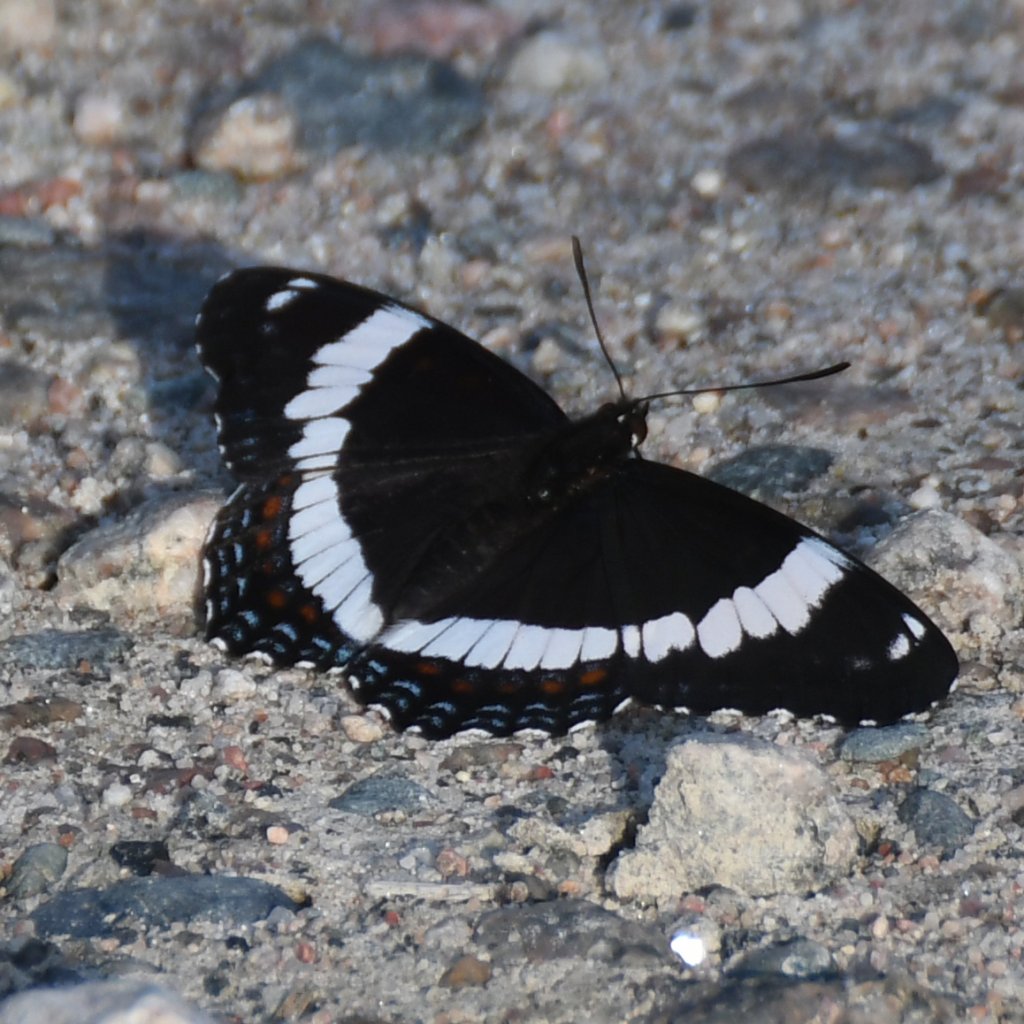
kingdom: Animalia
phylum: Arthropoda
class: Insecta
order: Lepidoptera
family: Nymphalidae
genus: Limenitis
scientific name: Limenitis arthemis
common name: Red-spotted Admiral
